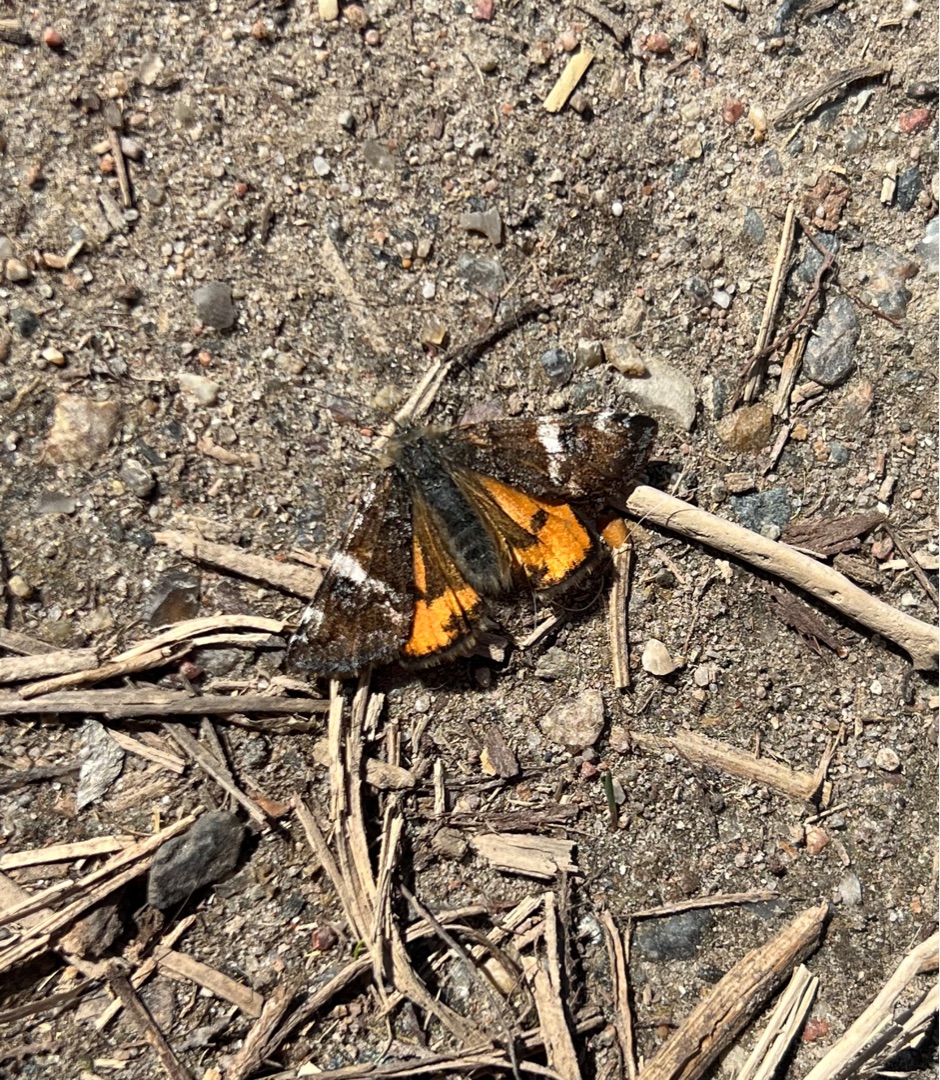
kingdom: Animalia
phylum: Arthropoda
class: Insecta
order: Lepidoptera
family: Geometridae
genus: Archiearis
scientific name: Archiearis parthenias
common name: Birkedagmåler
